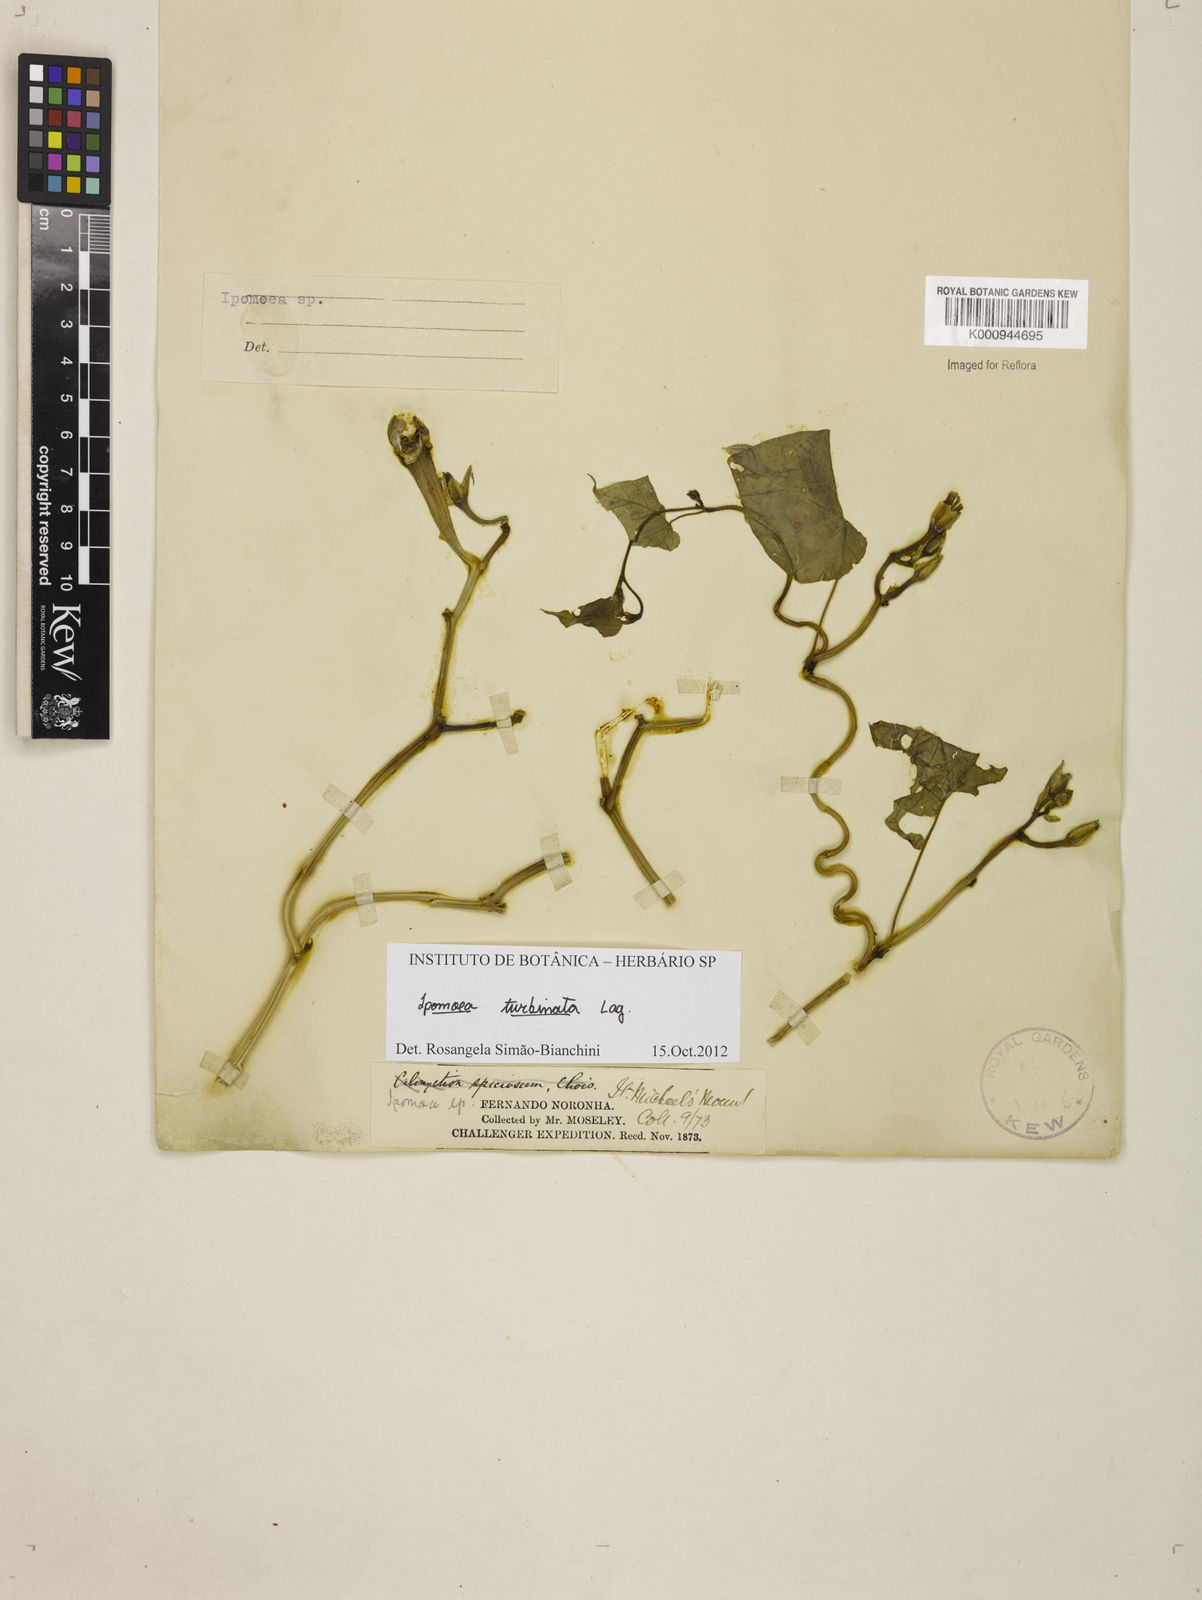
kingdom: Plantae
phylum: Tracheophyta
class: Magnoliopsida
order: Solanales
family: Convolvulaceae
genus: Ipomoea
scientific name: Ipomoea muricata
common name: Lilac-bell
